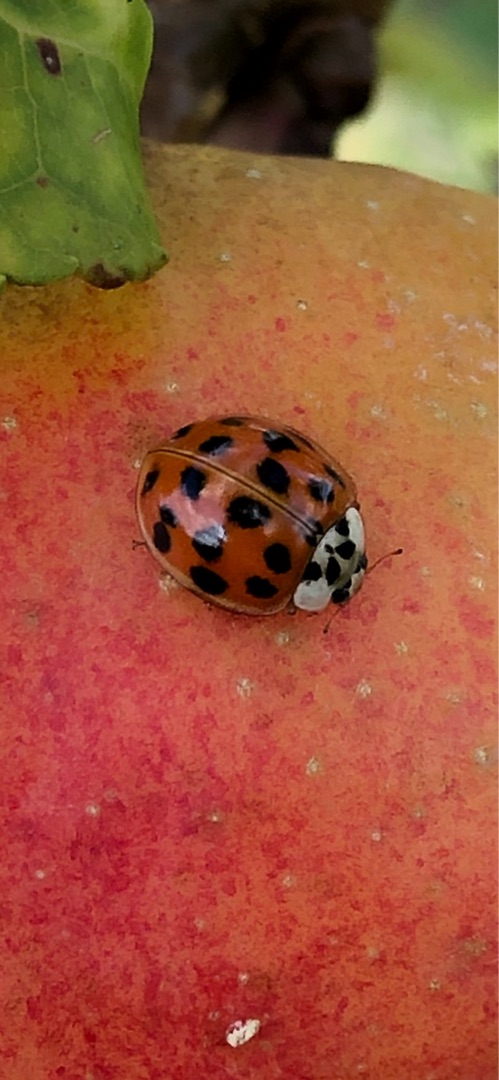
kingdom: Animalia
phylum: Arthropoda
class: Insecta
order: Coleoptera
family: Coccinellidae
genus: Harmonia
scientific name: Harmonia axyridis
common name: Harlekinmariehøne
